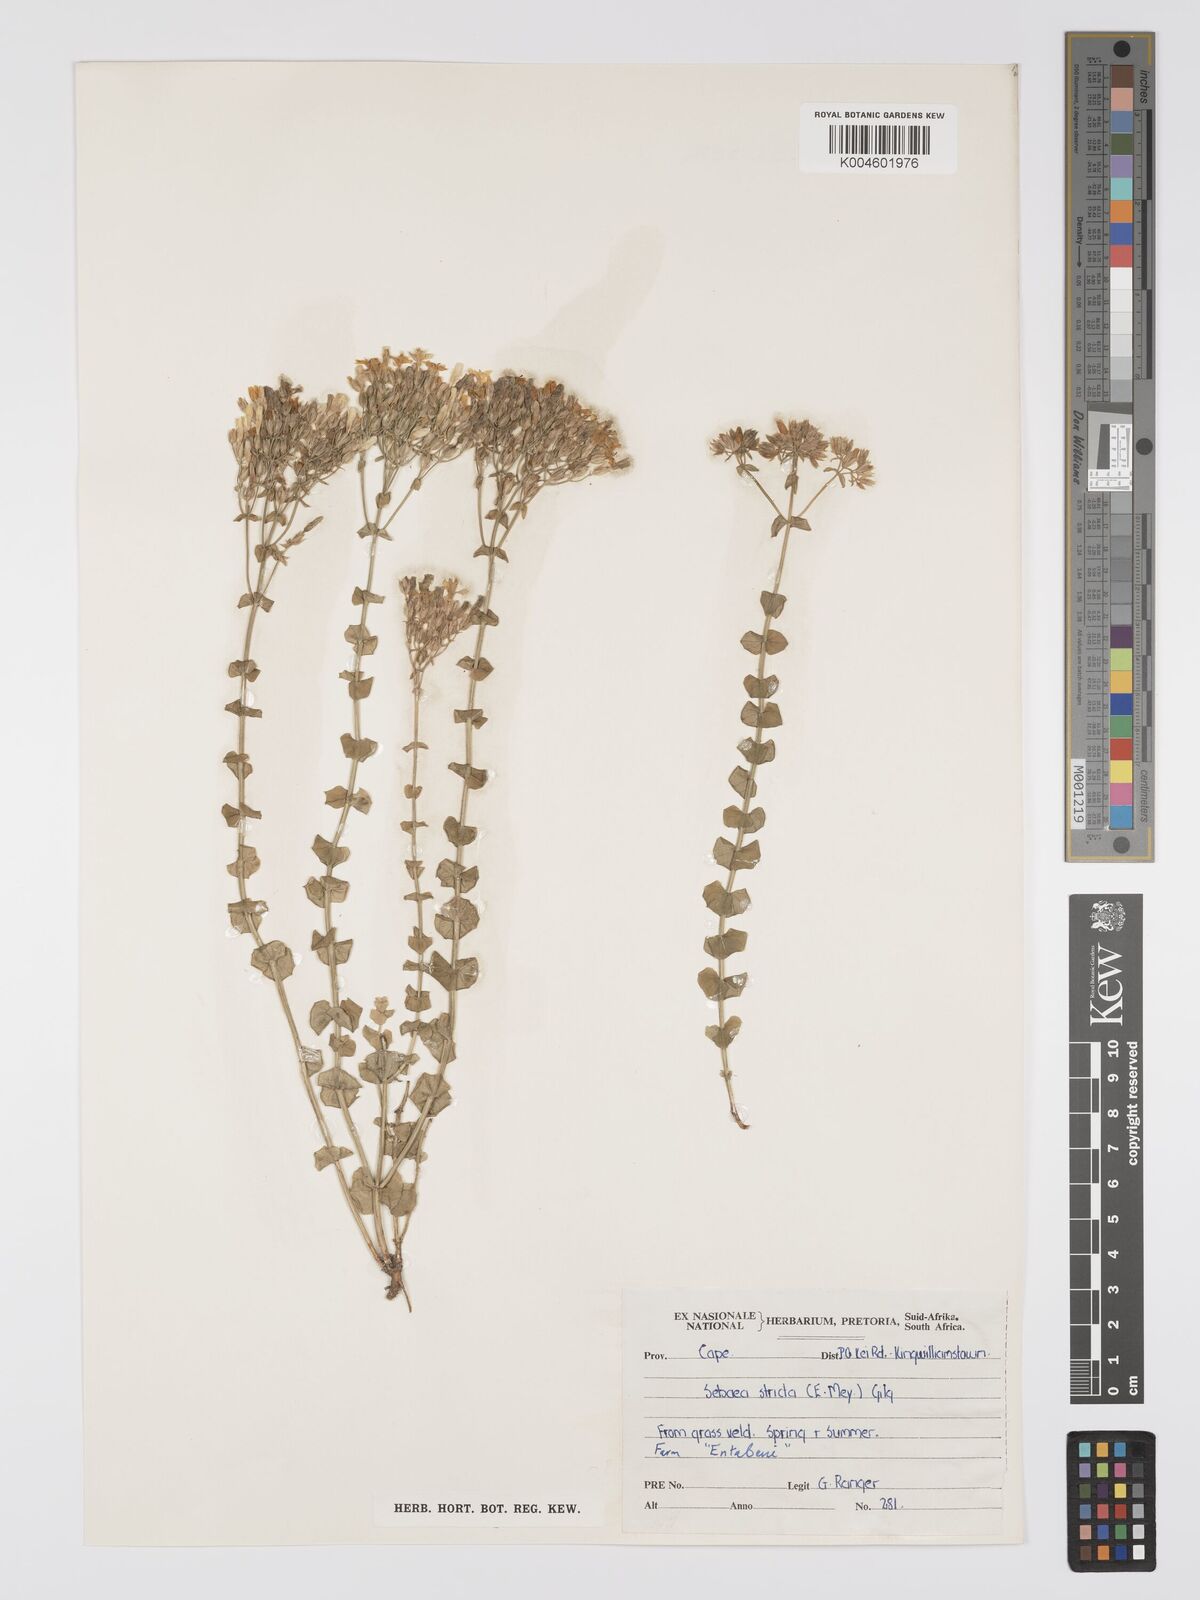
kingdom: Plantae
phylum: Tracheophyta
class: Magnoliopsida
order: Gentianales
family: Gentianaceae
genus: Sebaea
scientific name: Sebaea
